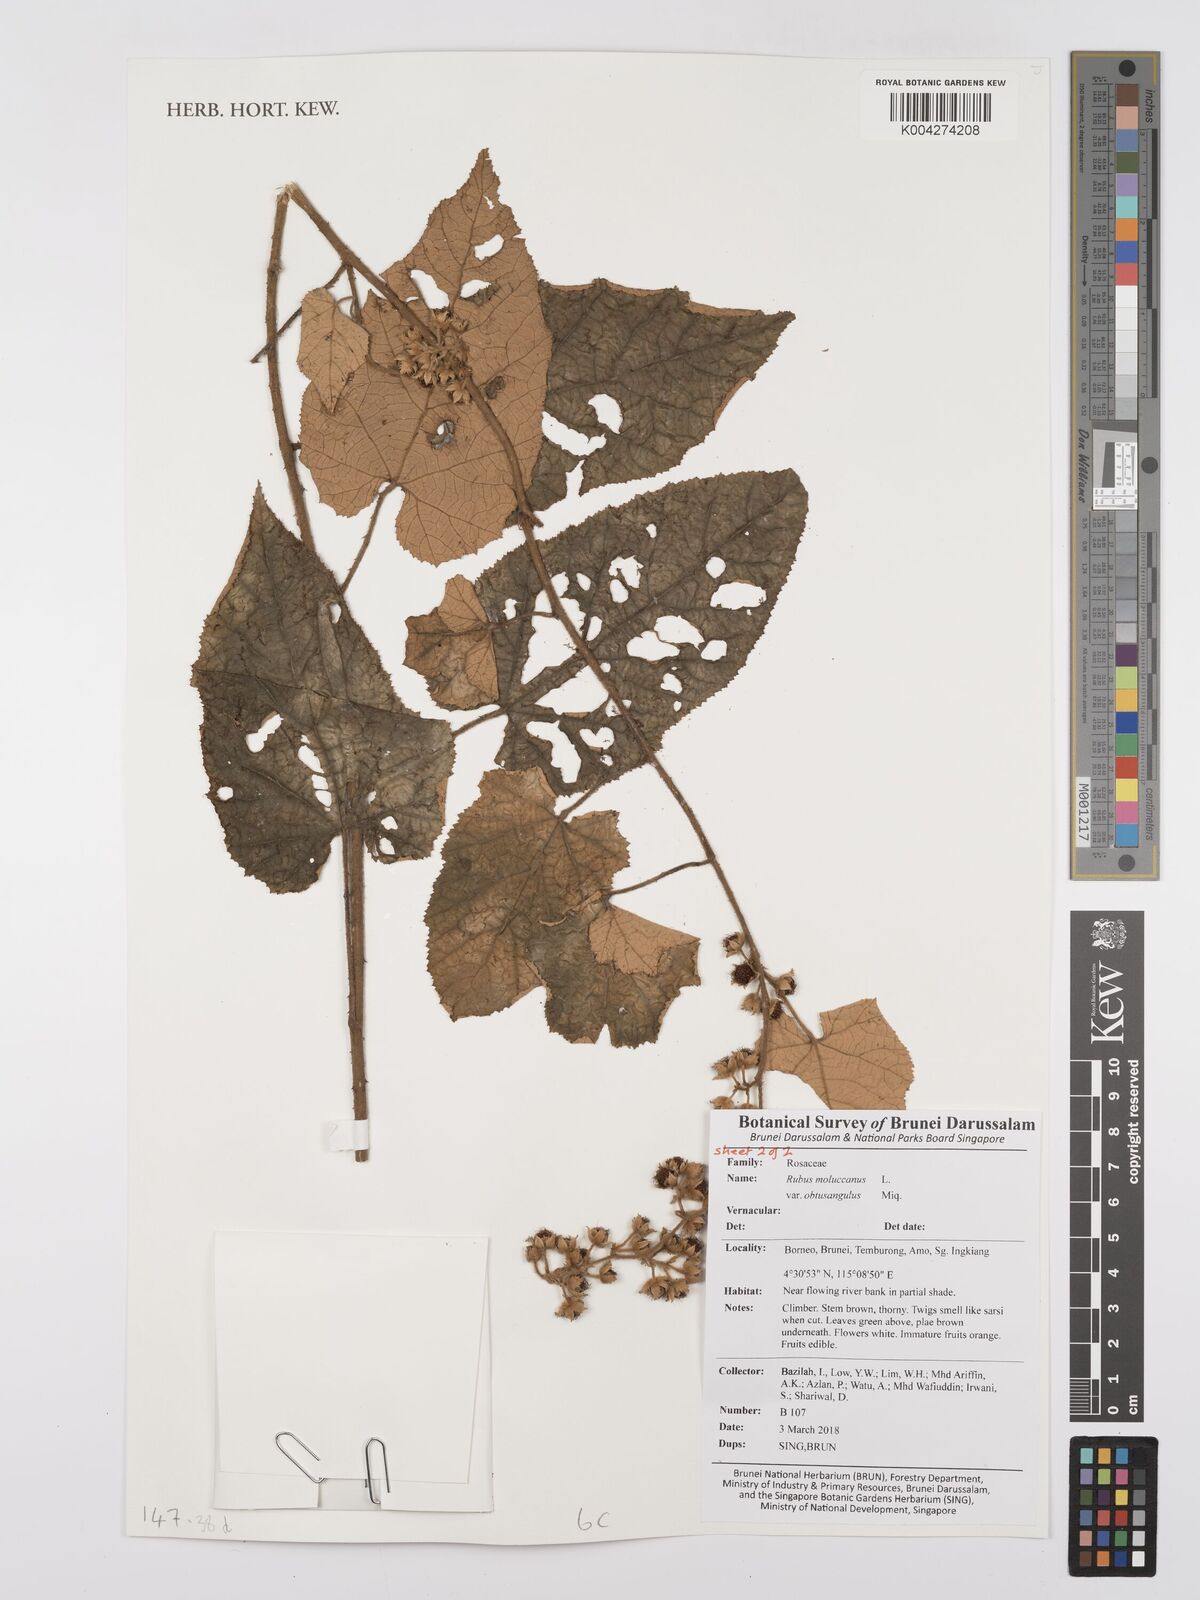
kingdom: Plantae
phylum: Tracheophyta
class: Magnoliopsida
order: Rosales
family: Rosaceae
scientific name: Rosaceae
